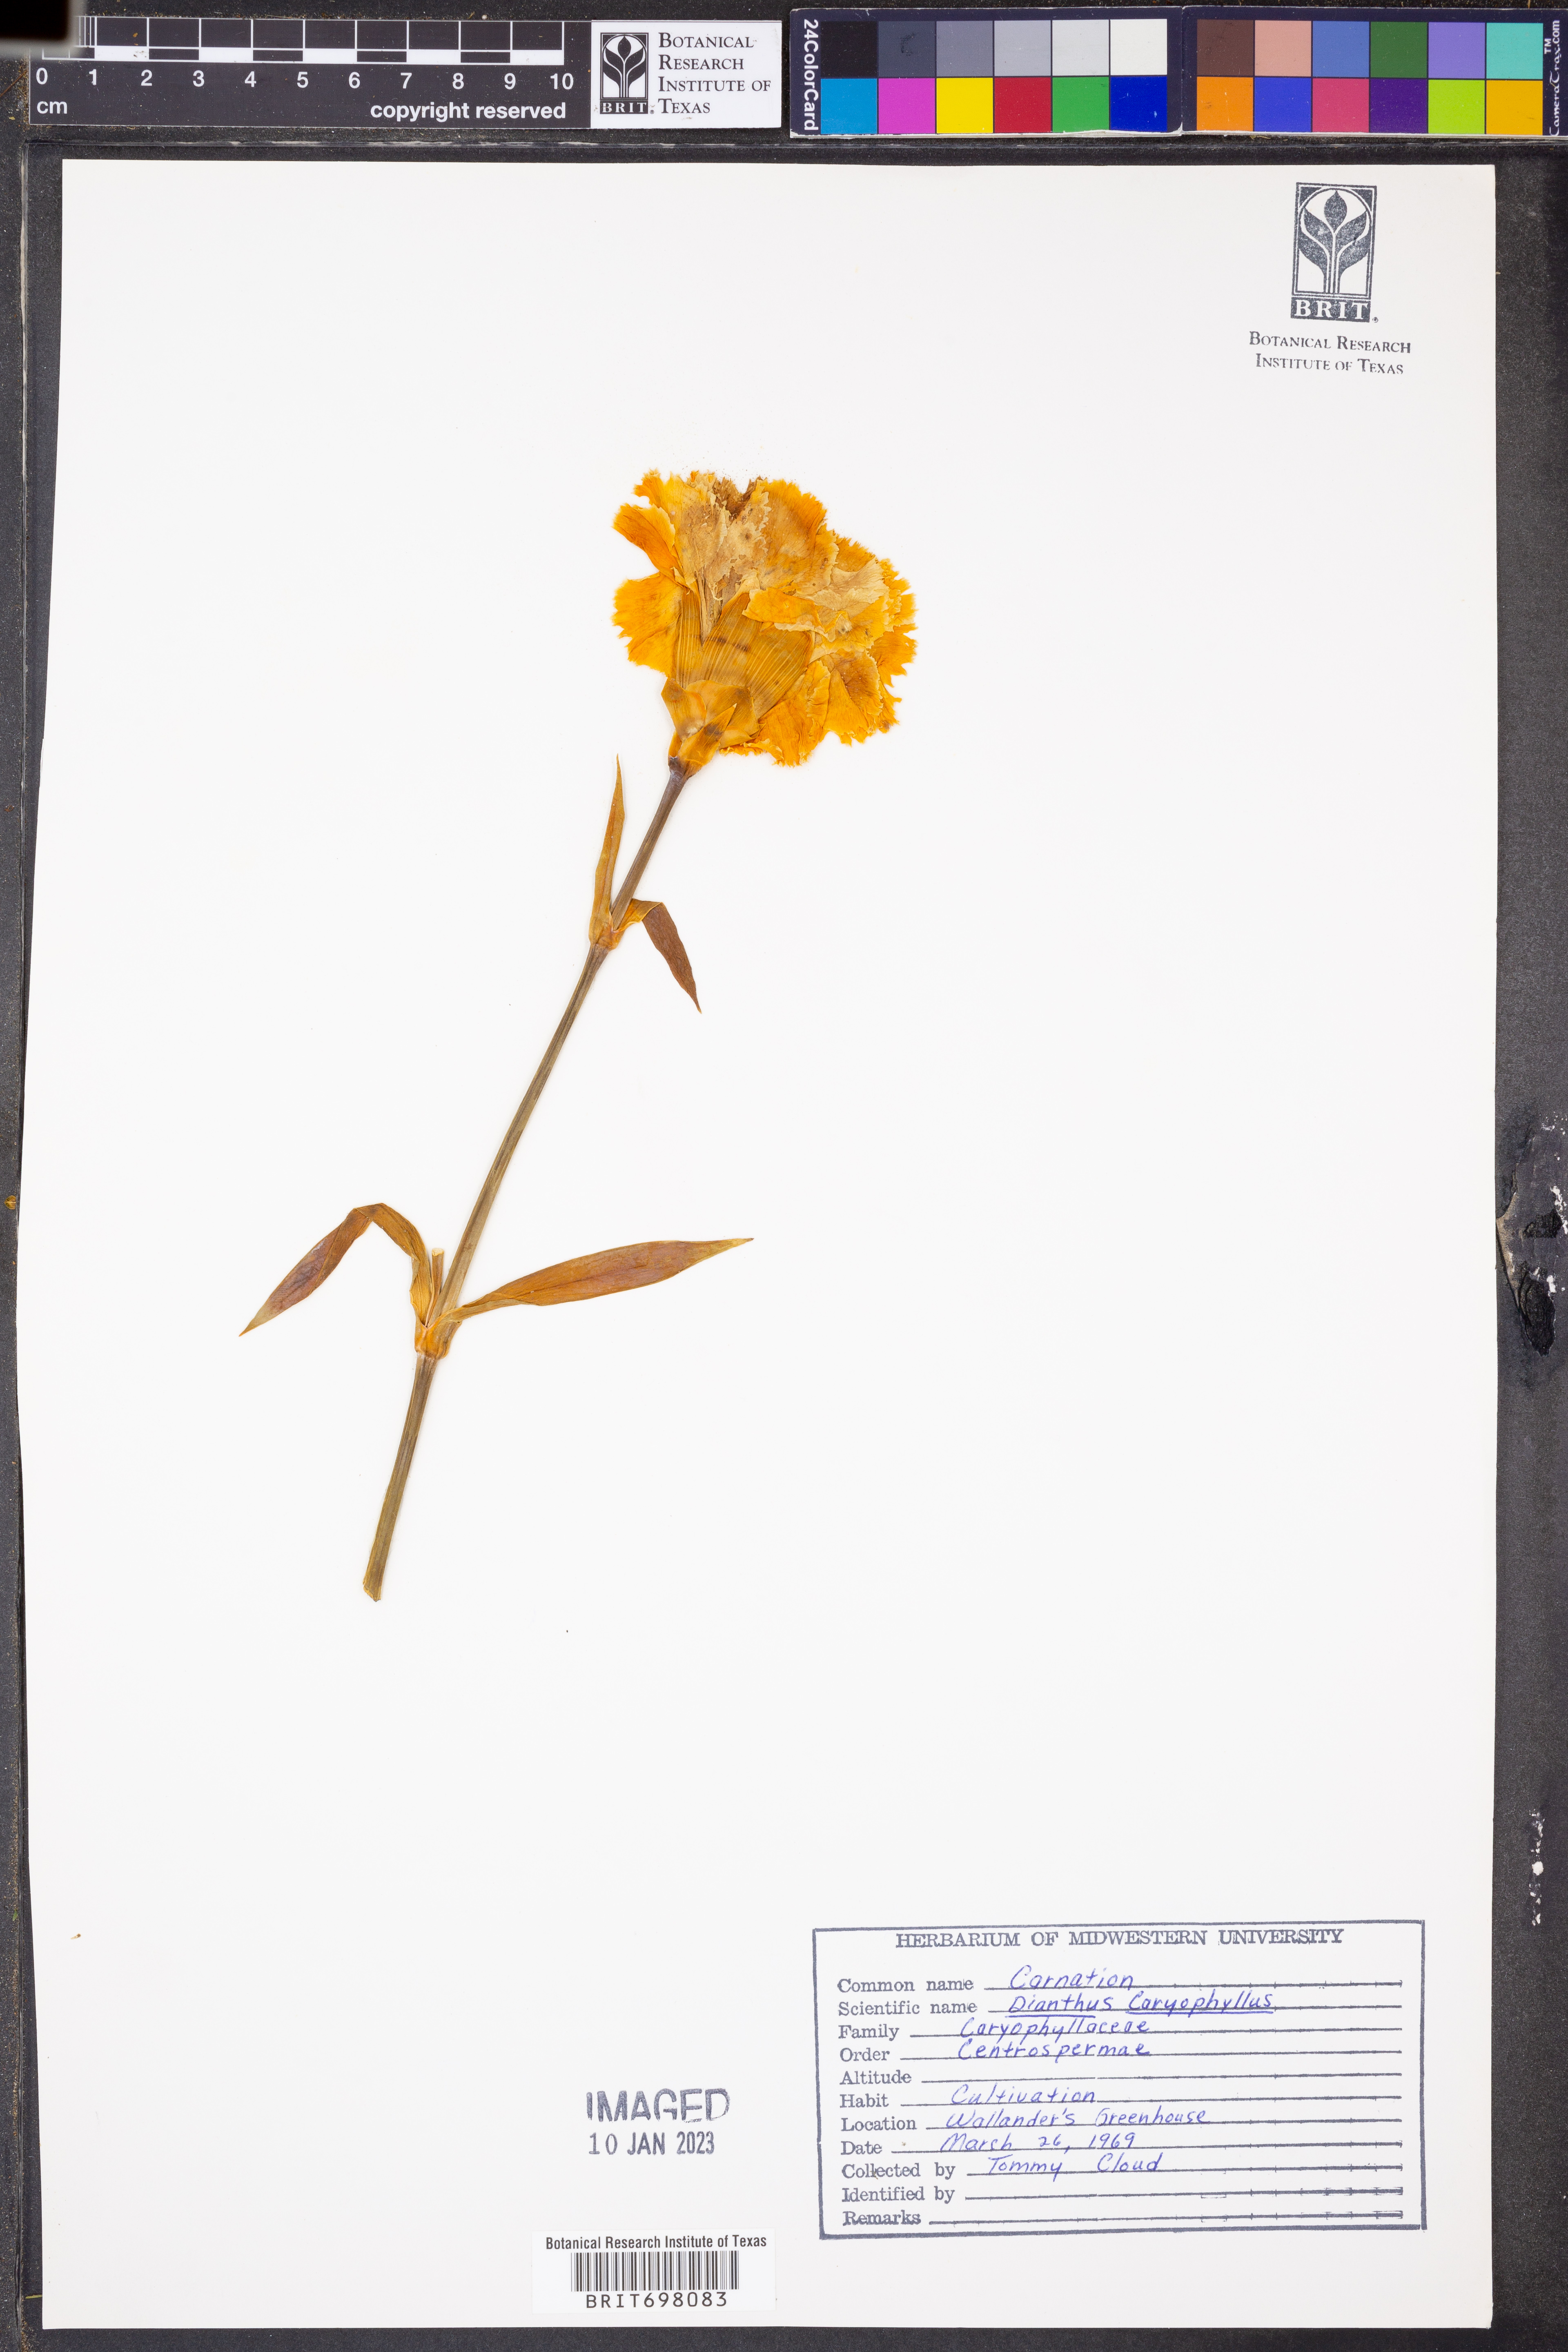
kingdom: Plantae
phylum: Tracheophyta
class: Magnoliopsida
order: Caryophyllales
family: Caryophyllaceae
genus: Dianthus
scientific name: Dianthus caryophyllus
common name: Clove pink
